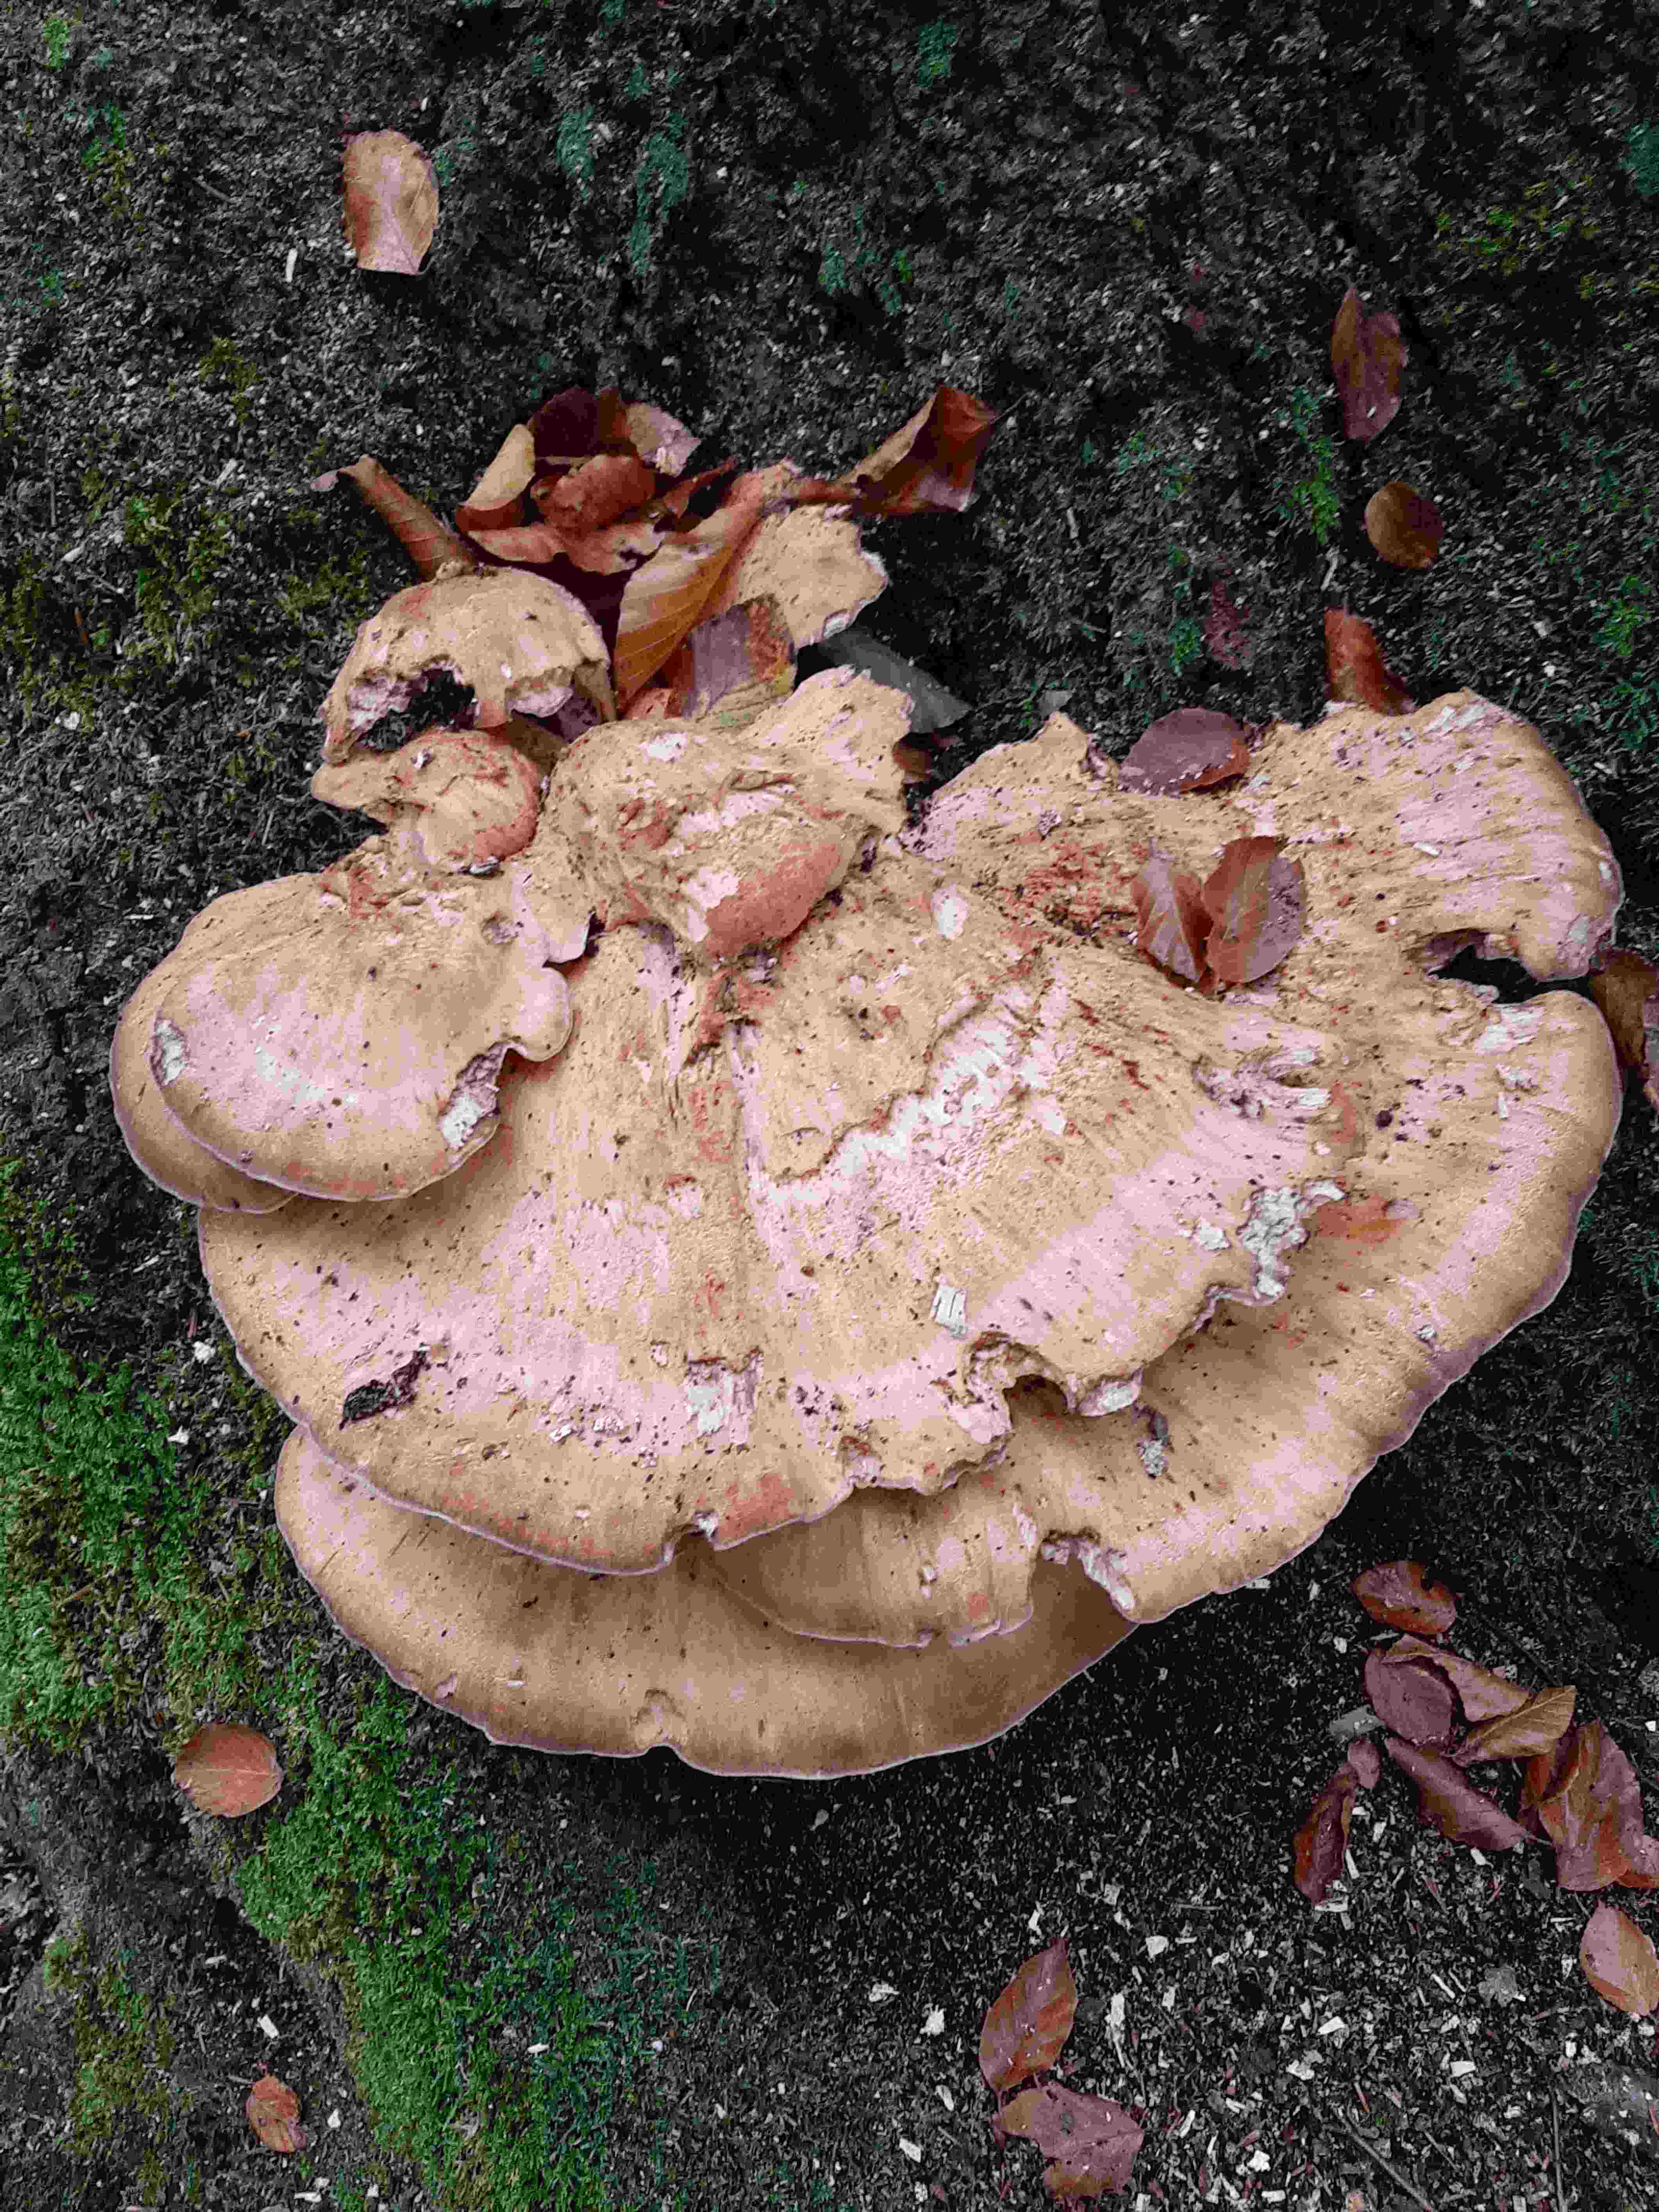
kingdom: Fungi
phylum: Basidiomycota
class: Agaricomycetes
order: Polyporales
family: Meripilaceae
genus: Meripilus
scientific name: Meripilus giganteus
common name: kæmpeporesvamp
